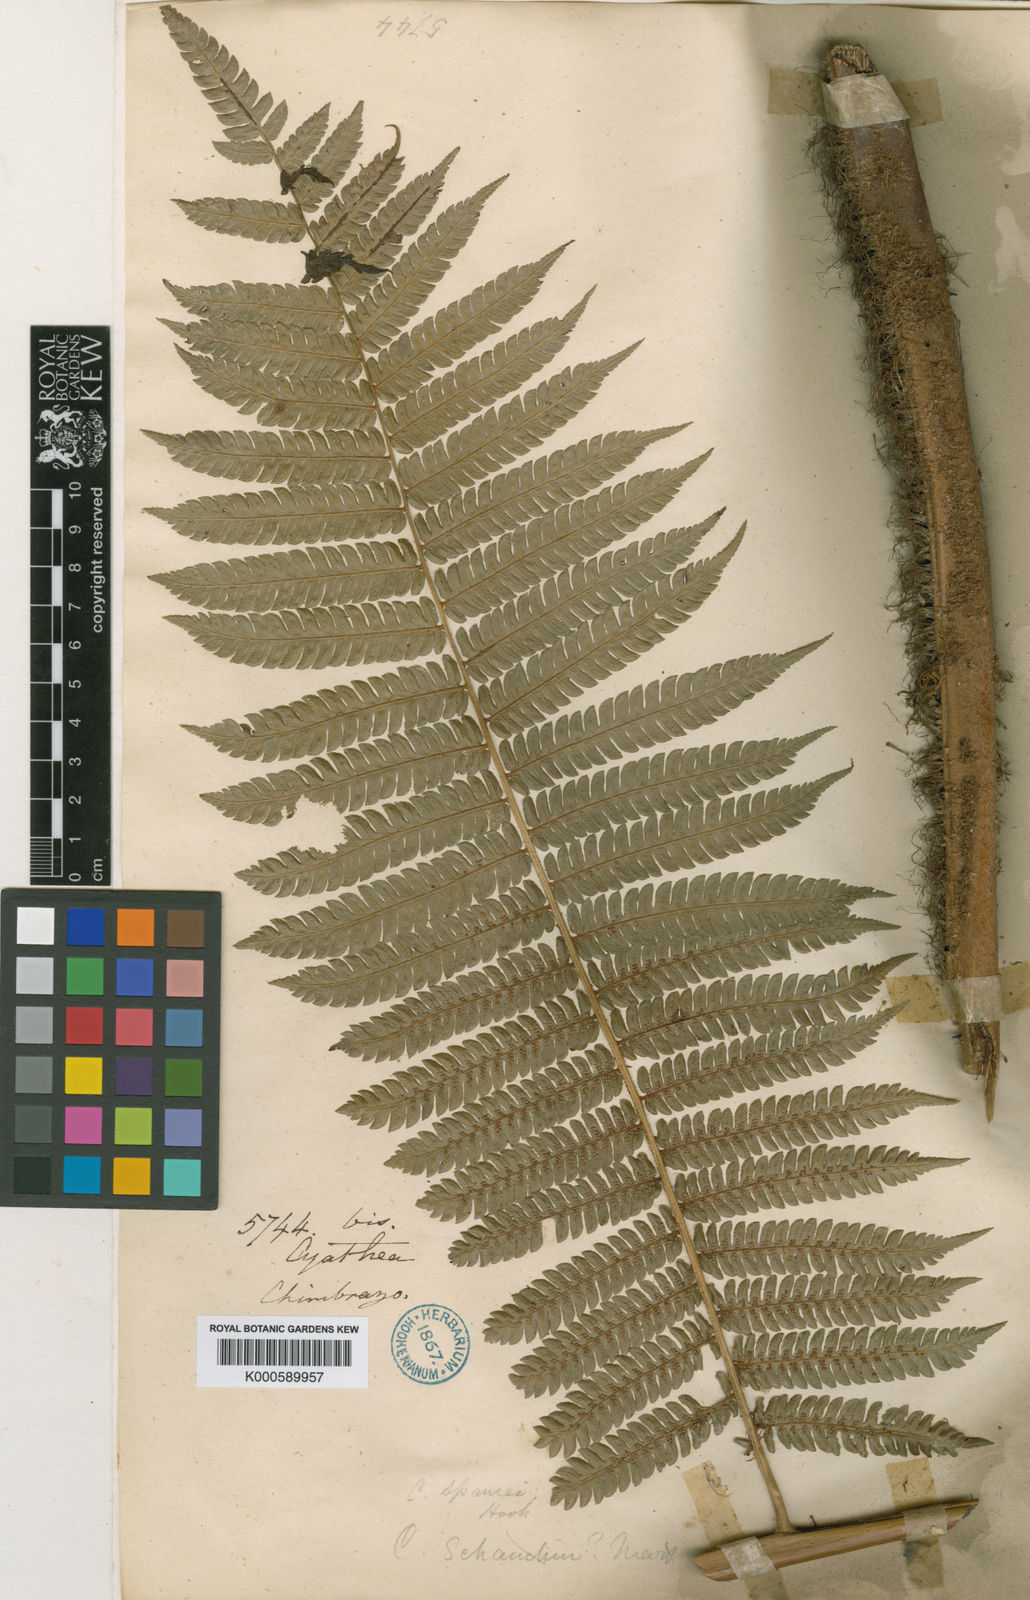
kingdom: Plantae
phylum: Tracheophyta
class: Polypodiopsida
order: Cyatheales
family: Cyatheaceae
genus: Alsophila
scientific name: Alsophila incana
